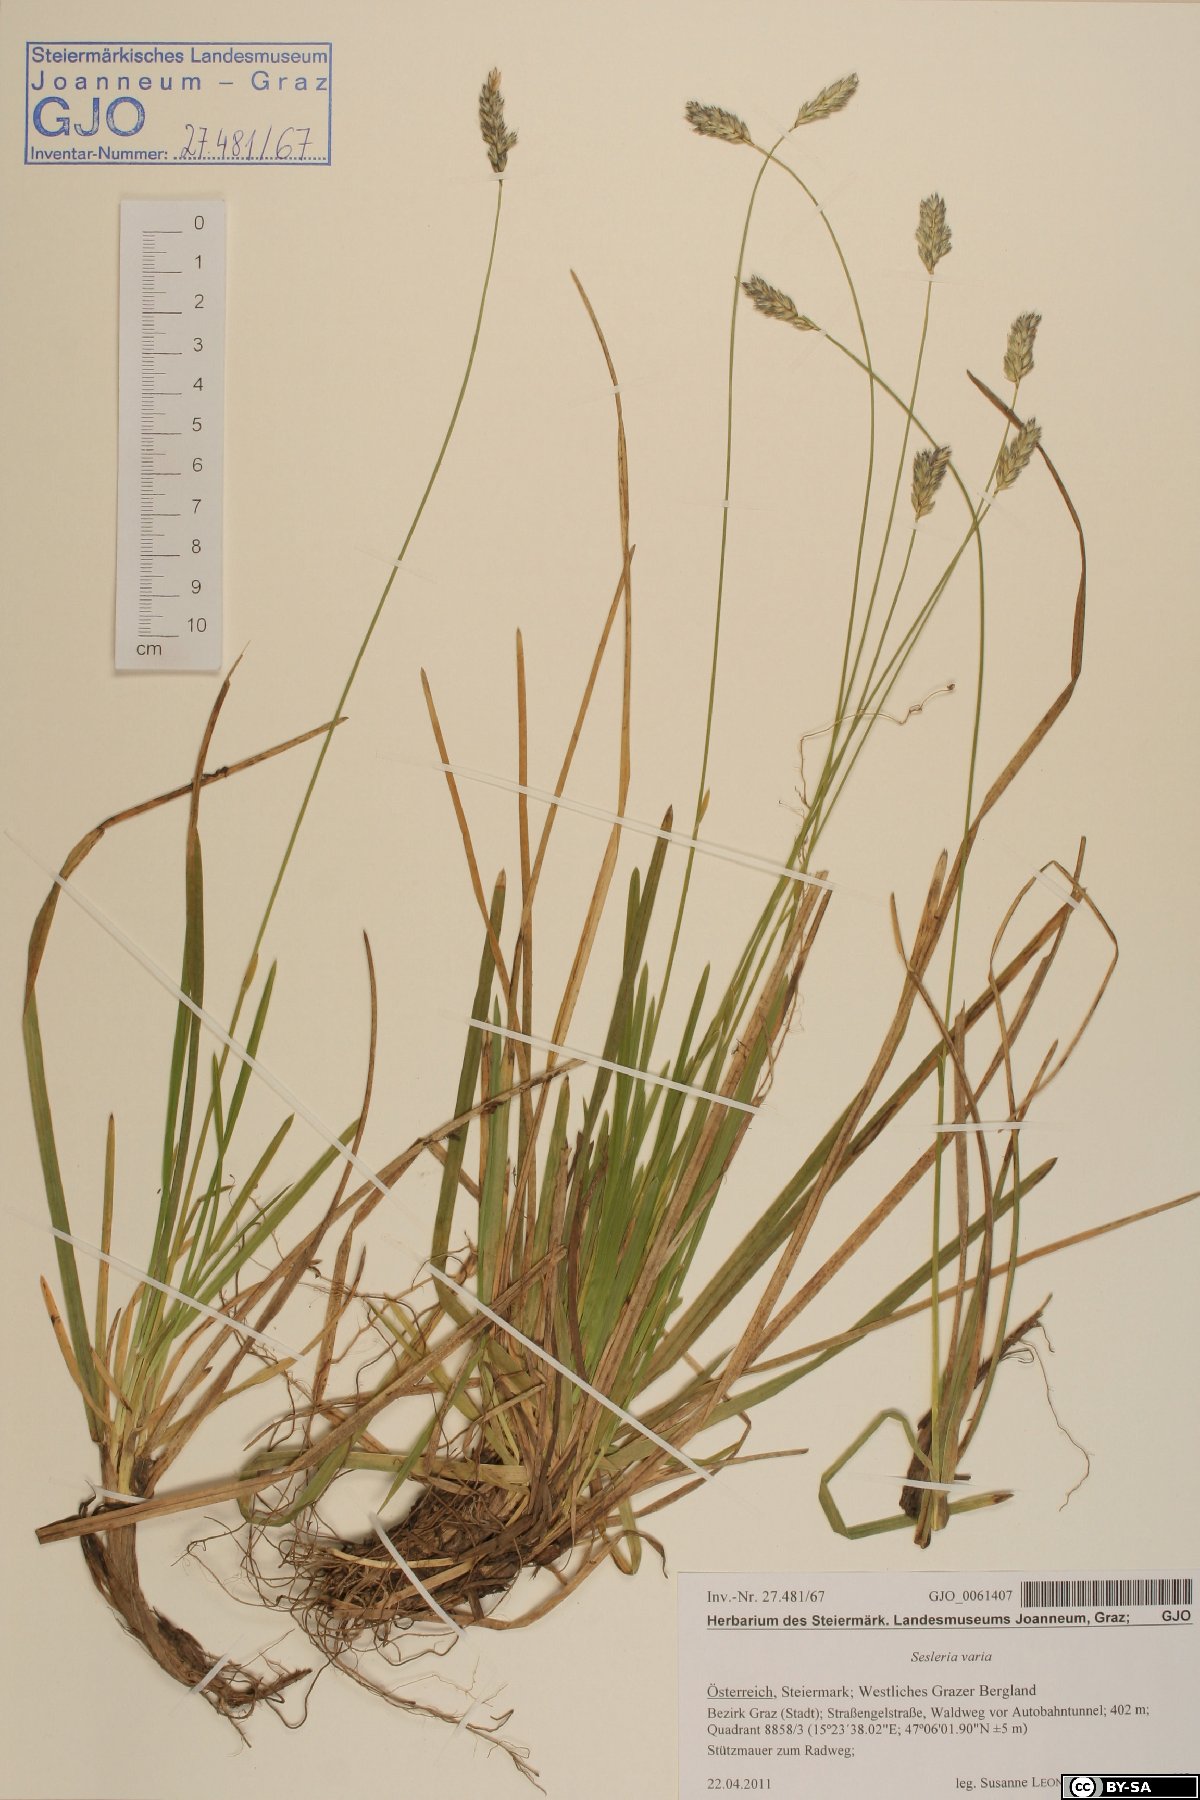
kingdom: Plantae
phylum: Tracheophyta
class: Liliopsida
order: Poales
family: Poaceae
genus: Sesleria
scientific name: Sesleria caerulea
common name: Blue moor-grass
